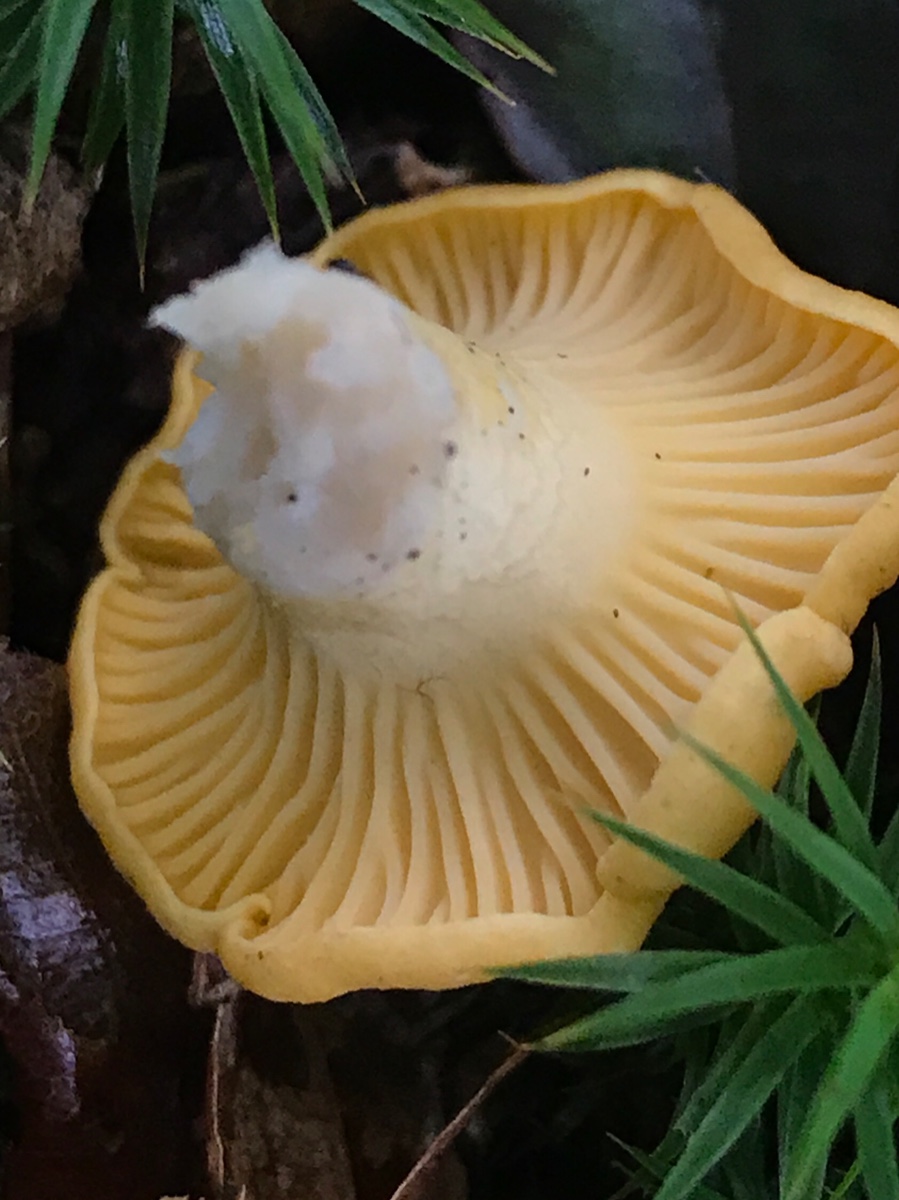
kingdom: Fungi
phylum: Basidiomycota
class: Agaricomycetes
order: Cantharellales
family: Hydnaceae
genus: Cantharellus
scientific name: Cantharellus cibarius
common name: almindelig kantarel
